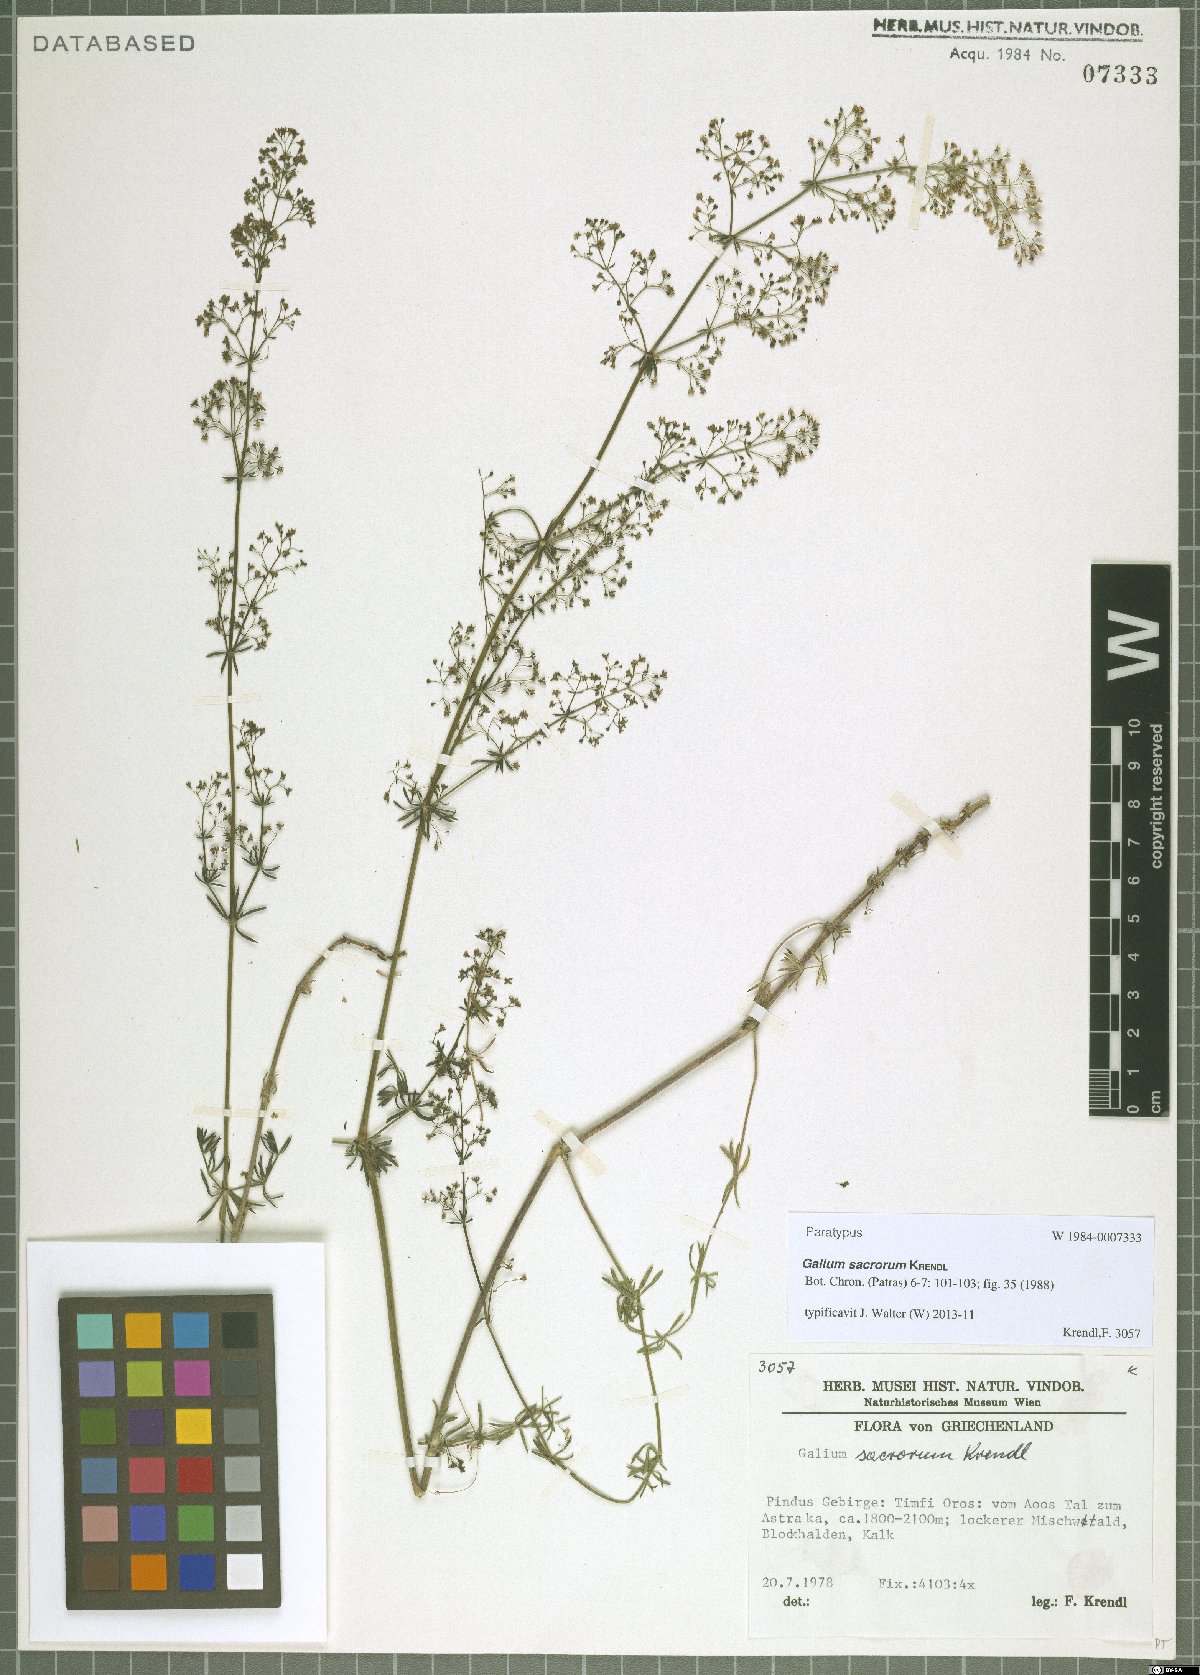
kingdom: Plantae
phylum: Tracheophyta
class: Magnoliopsida
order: Gentianales
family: Rubiaceae
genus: Galium
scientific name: Galium monasterium
